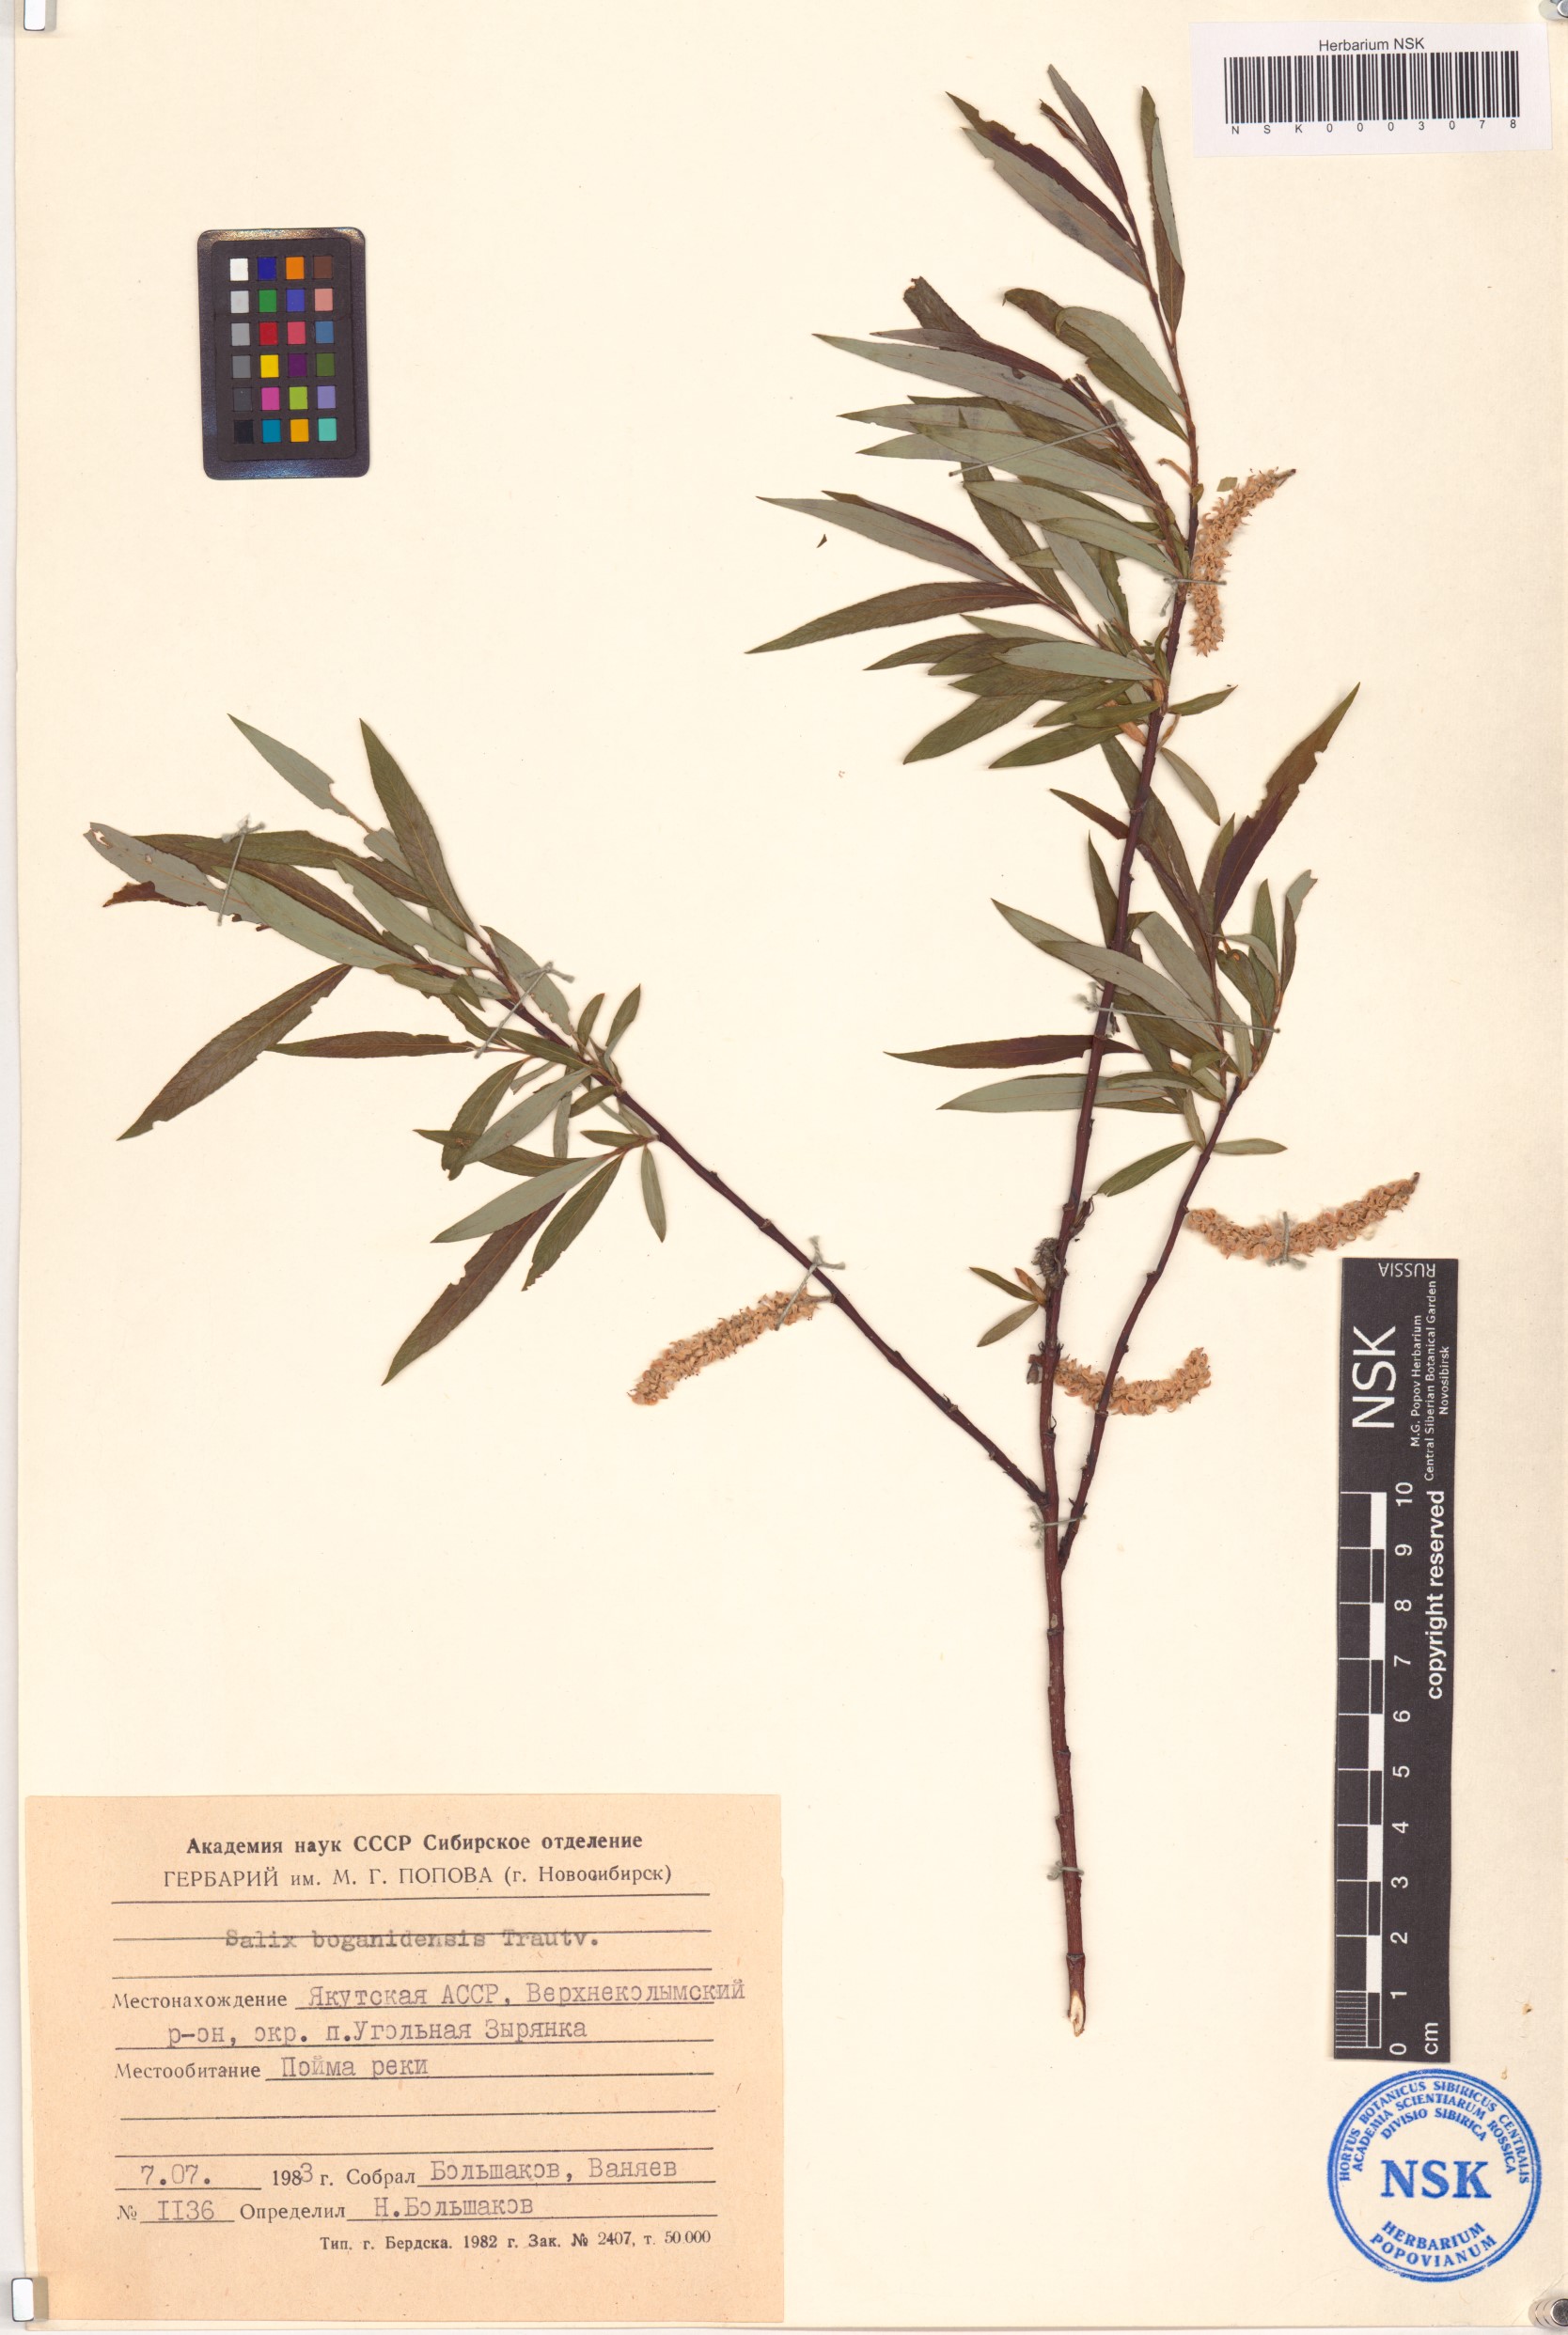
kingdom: Plantae
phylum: Tracheophyta
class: Magnoliopsida
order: Malpighiales
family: Salicaceae
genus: Salix
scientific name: Salix boganidensis
